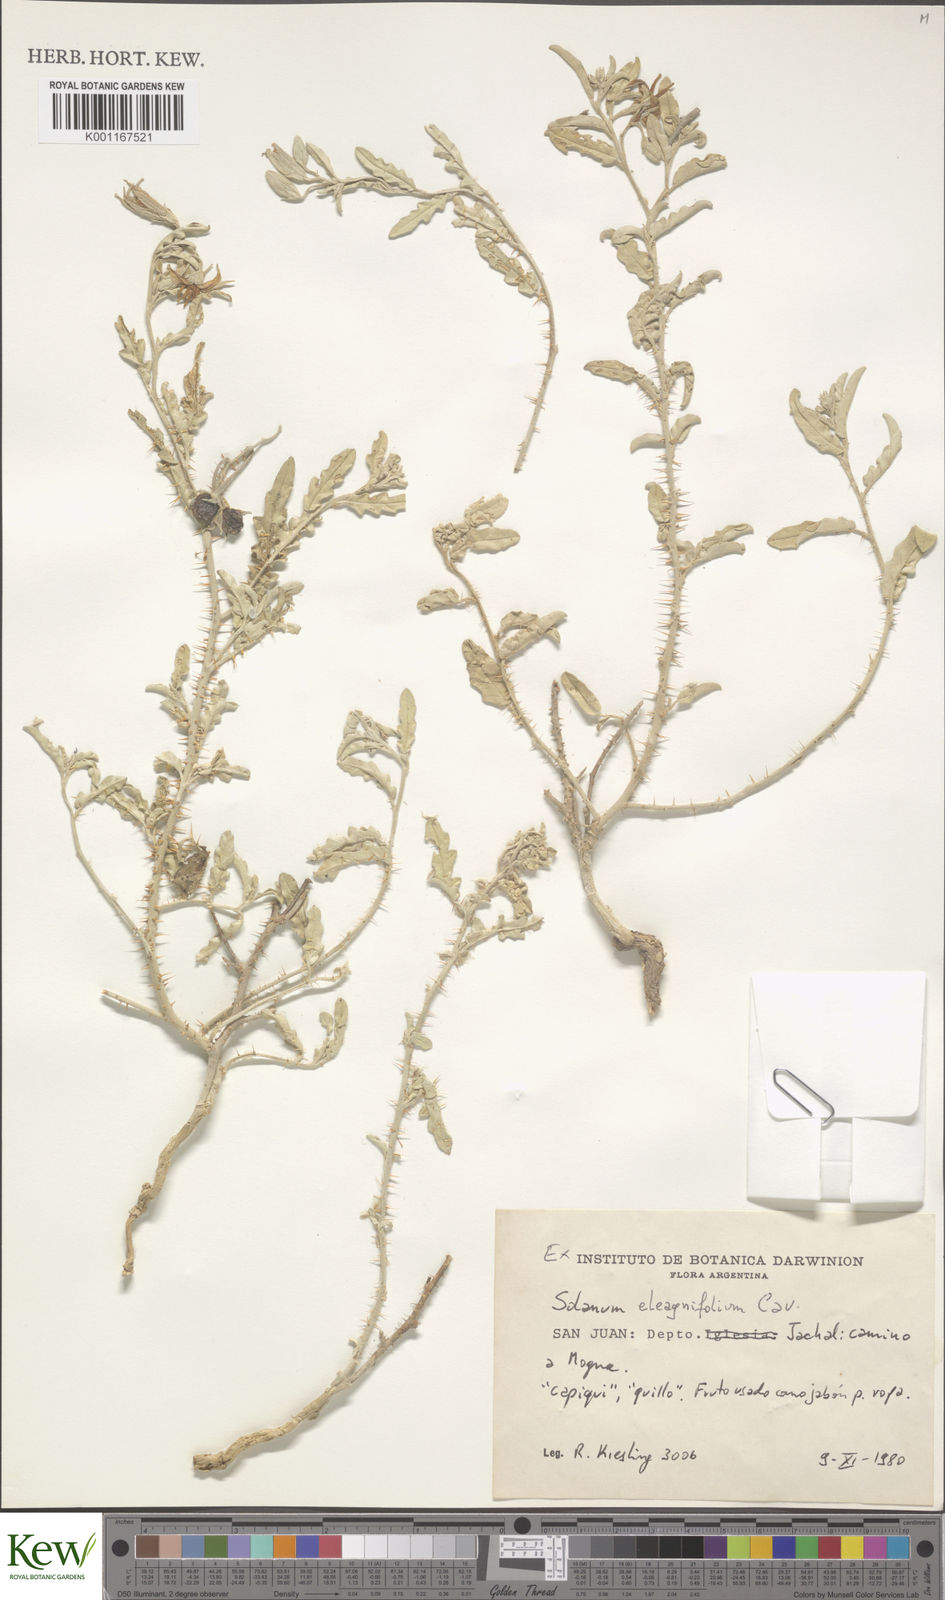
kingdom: Plantae
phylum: Tracheophyta
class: Magnoliopsida
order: Solanales
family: Solanaceae
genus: Solanum
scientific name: Solanum elaeagnifolium
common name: Silverleaf nightshade
